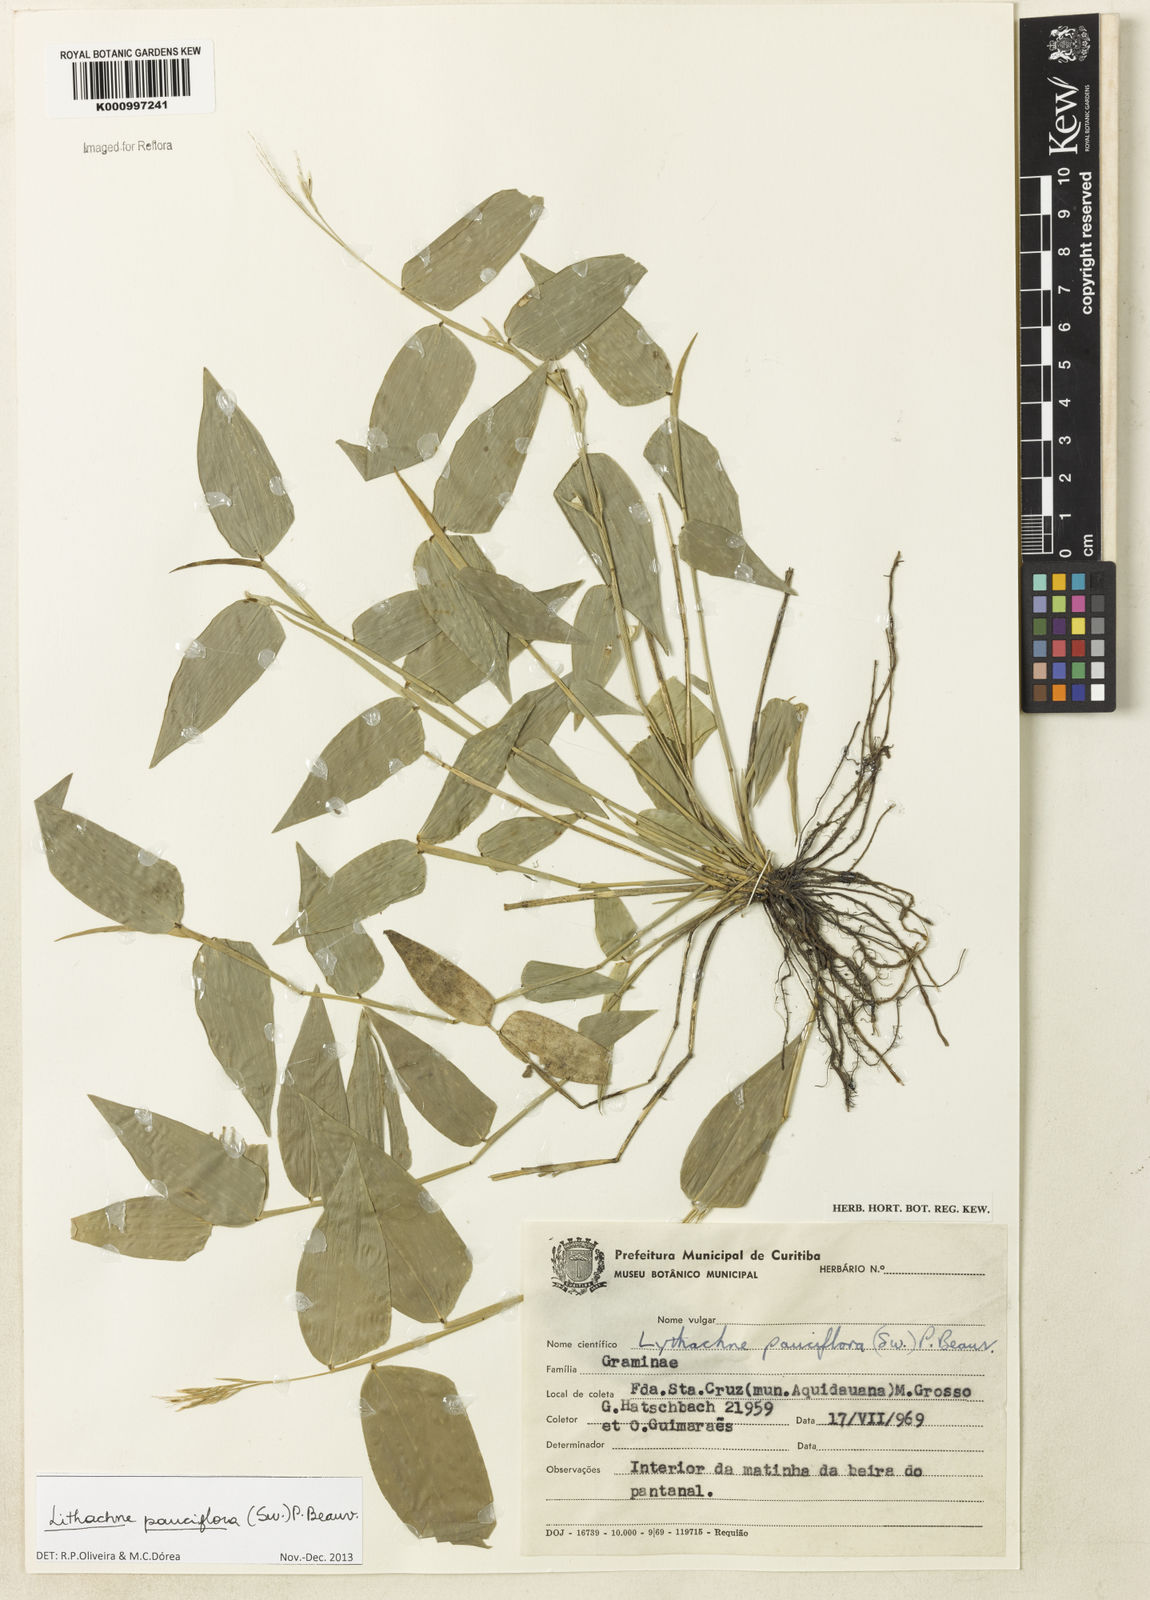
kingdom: Plantae
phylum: Tracheophyta
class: Liliopsida
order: Poales
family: Poaceae
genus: Lithachne
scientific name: Lithachne pauciflora
